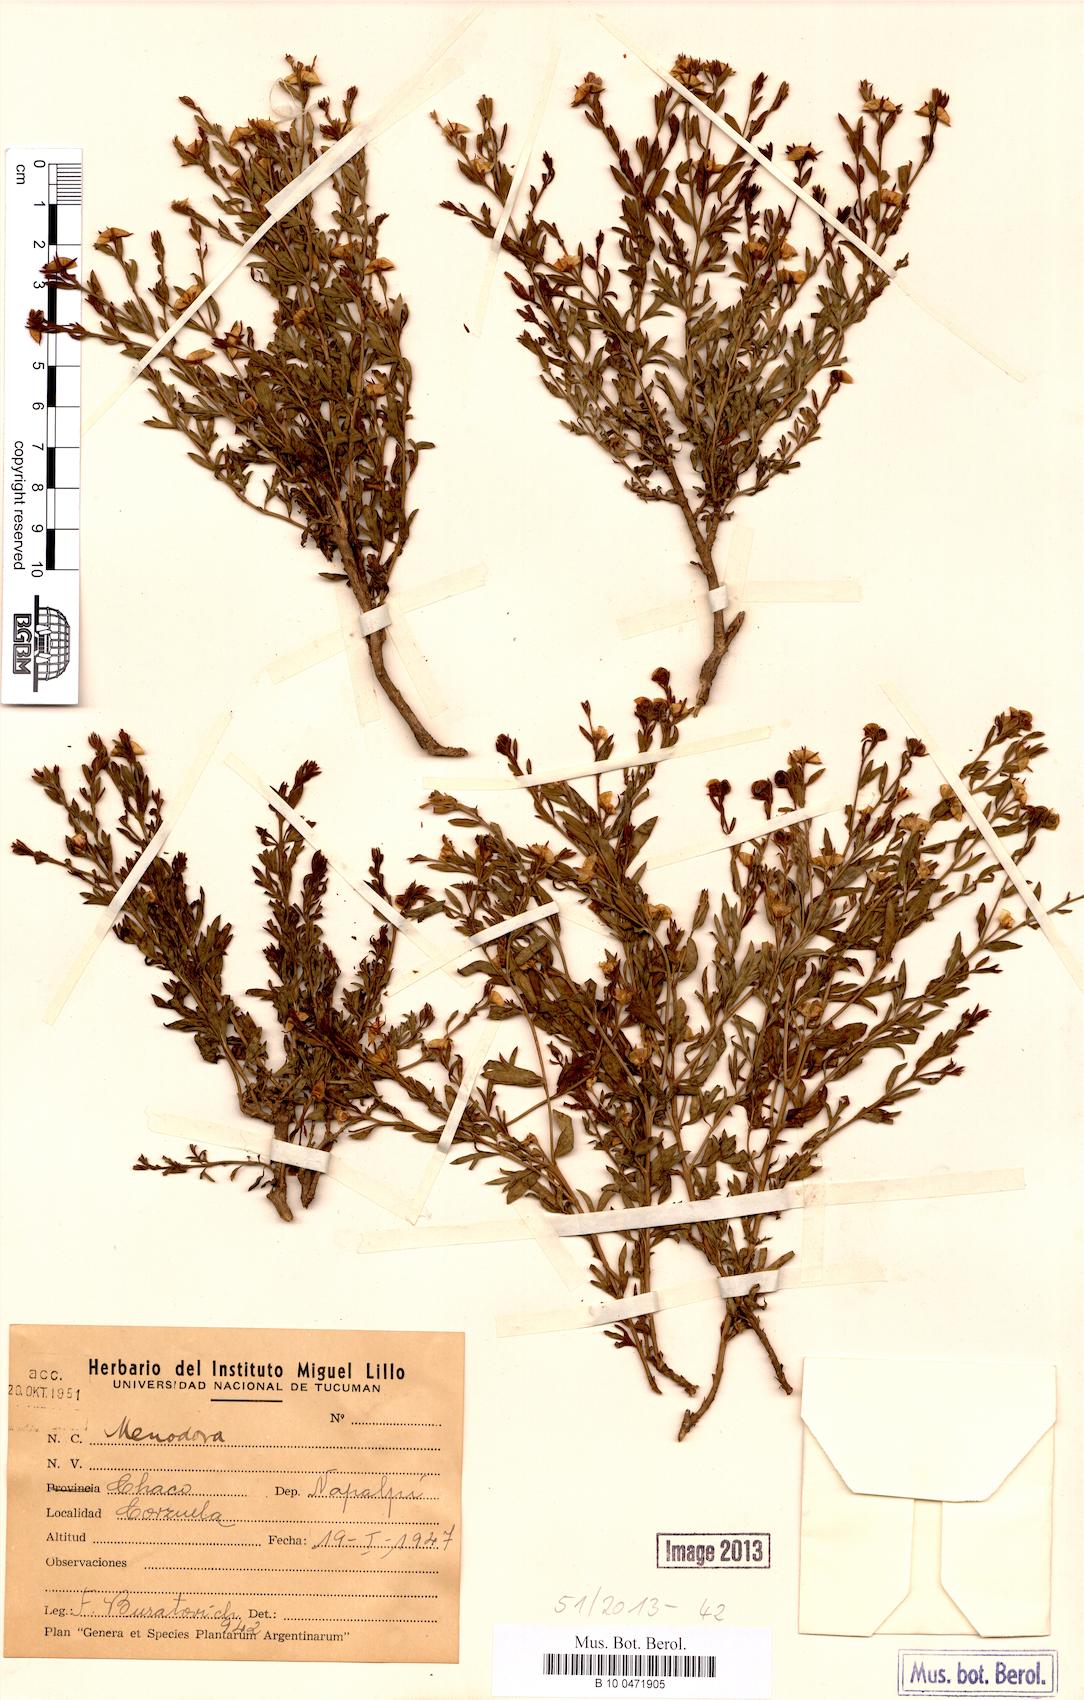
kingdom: Plantae
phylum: Tracheophyta
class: Magnoliopsida
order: Lamiales
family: Oleaceae
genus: Menodora
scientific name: Menodora
